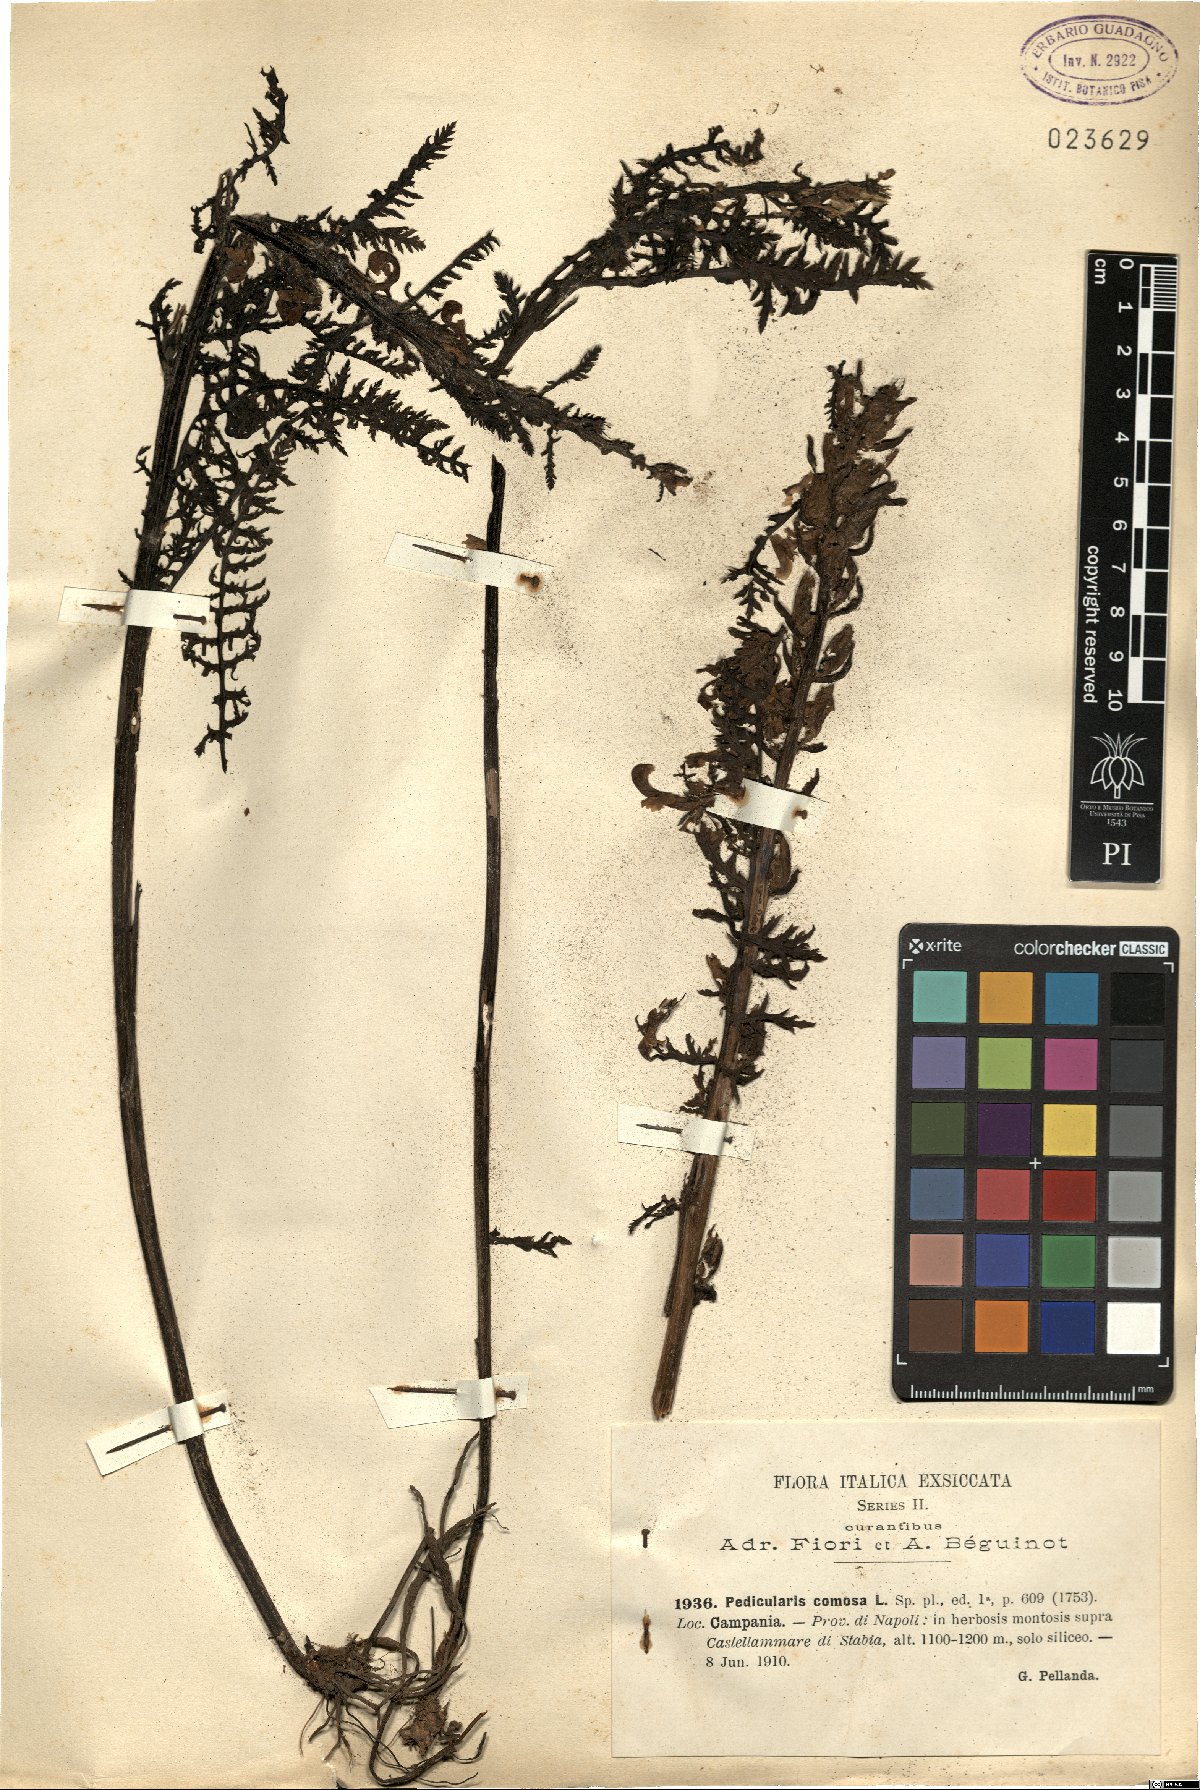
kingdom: Plantae
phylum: Tracheophyta
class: Magnoliopsida
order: Lamiales
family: Orobanchaceae
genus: Pedicularis
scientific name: Pedicularis comosa
